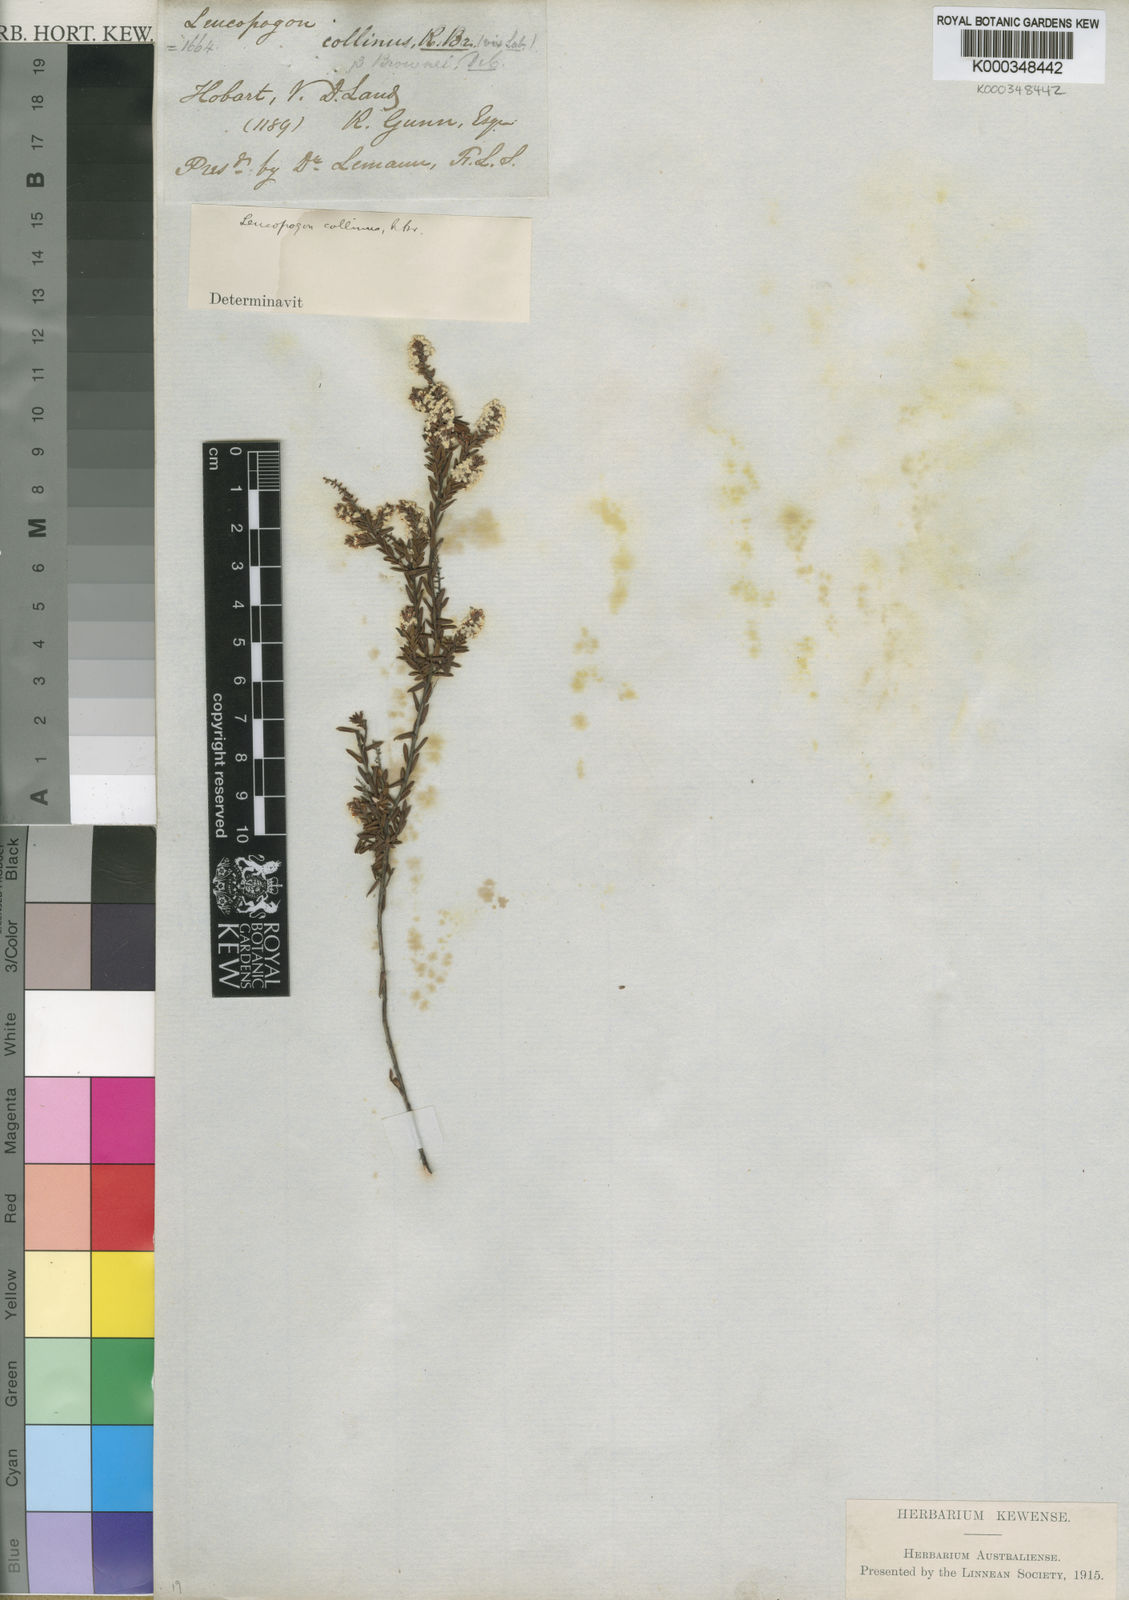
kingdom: Plantae
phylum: Tracheophyta
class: Magnoliopsida
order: Ericales
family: Ericaceae
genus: Leucopogon
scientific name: Leucopogon collinus
